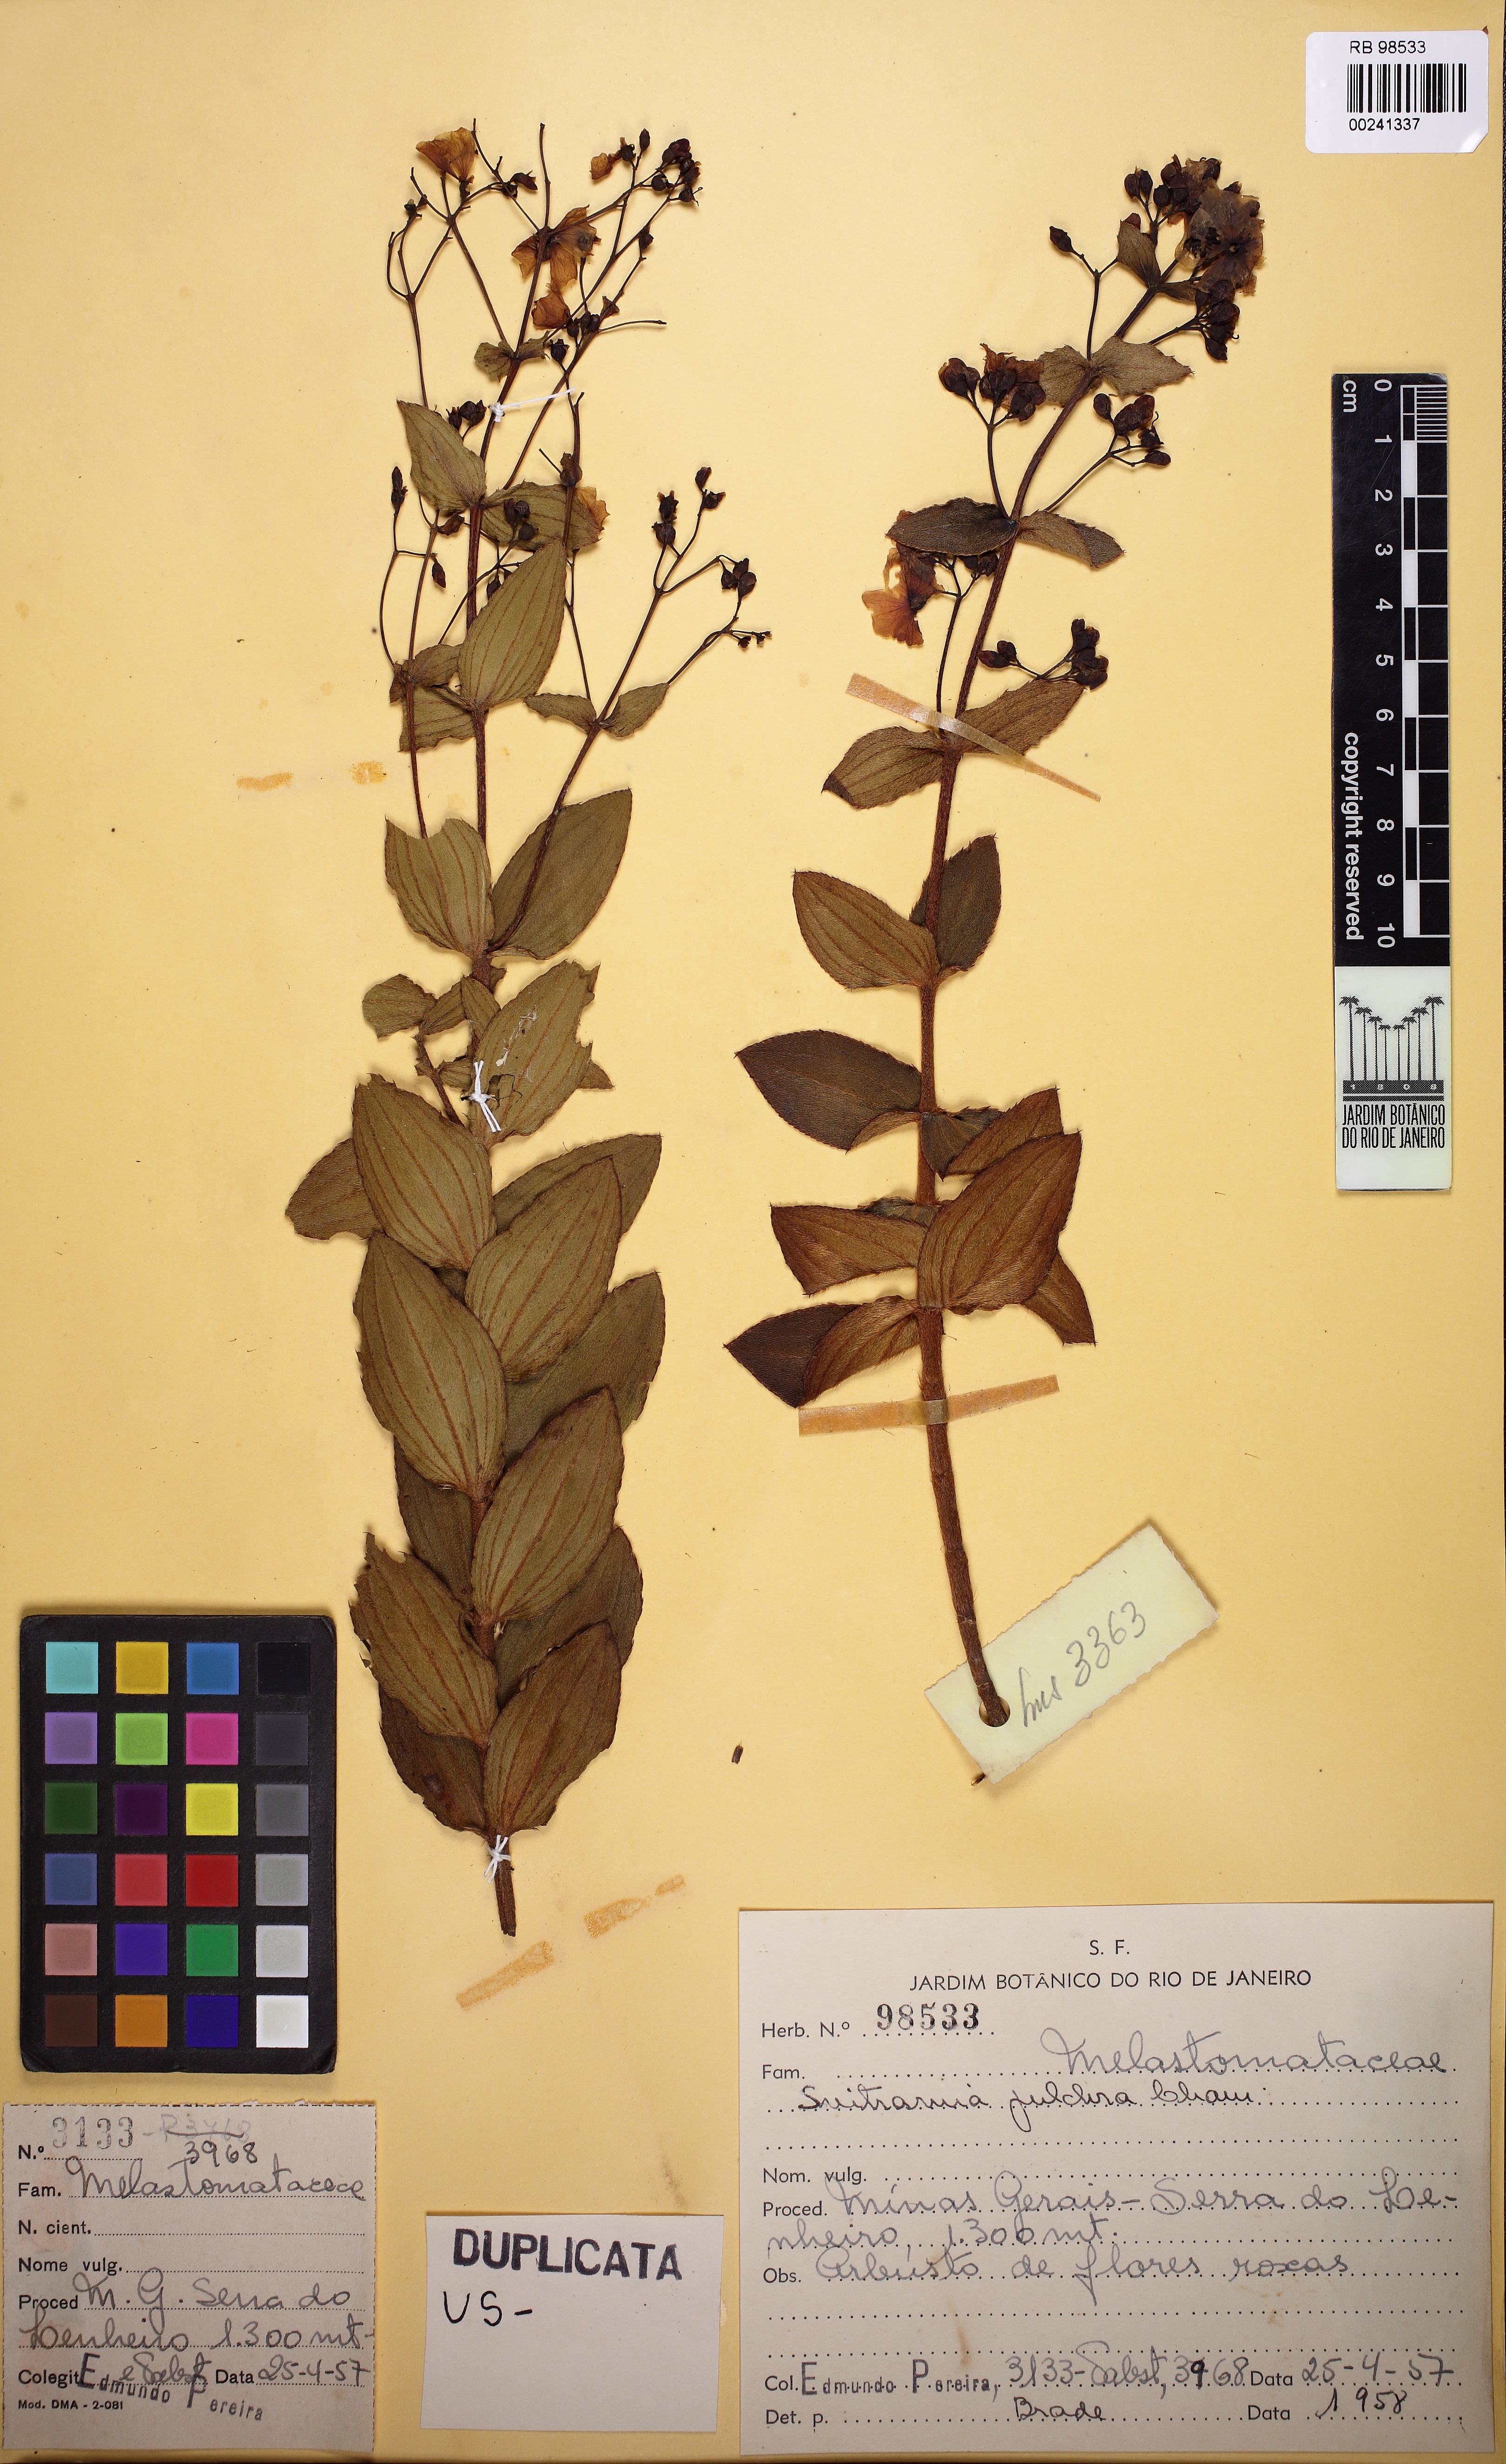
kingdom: Plantae
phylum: Tracheophyta
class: Magnoliopsida
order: Myrtales
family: Melastomataceae
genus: Pleroma
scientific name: Pleroma bandeirae
